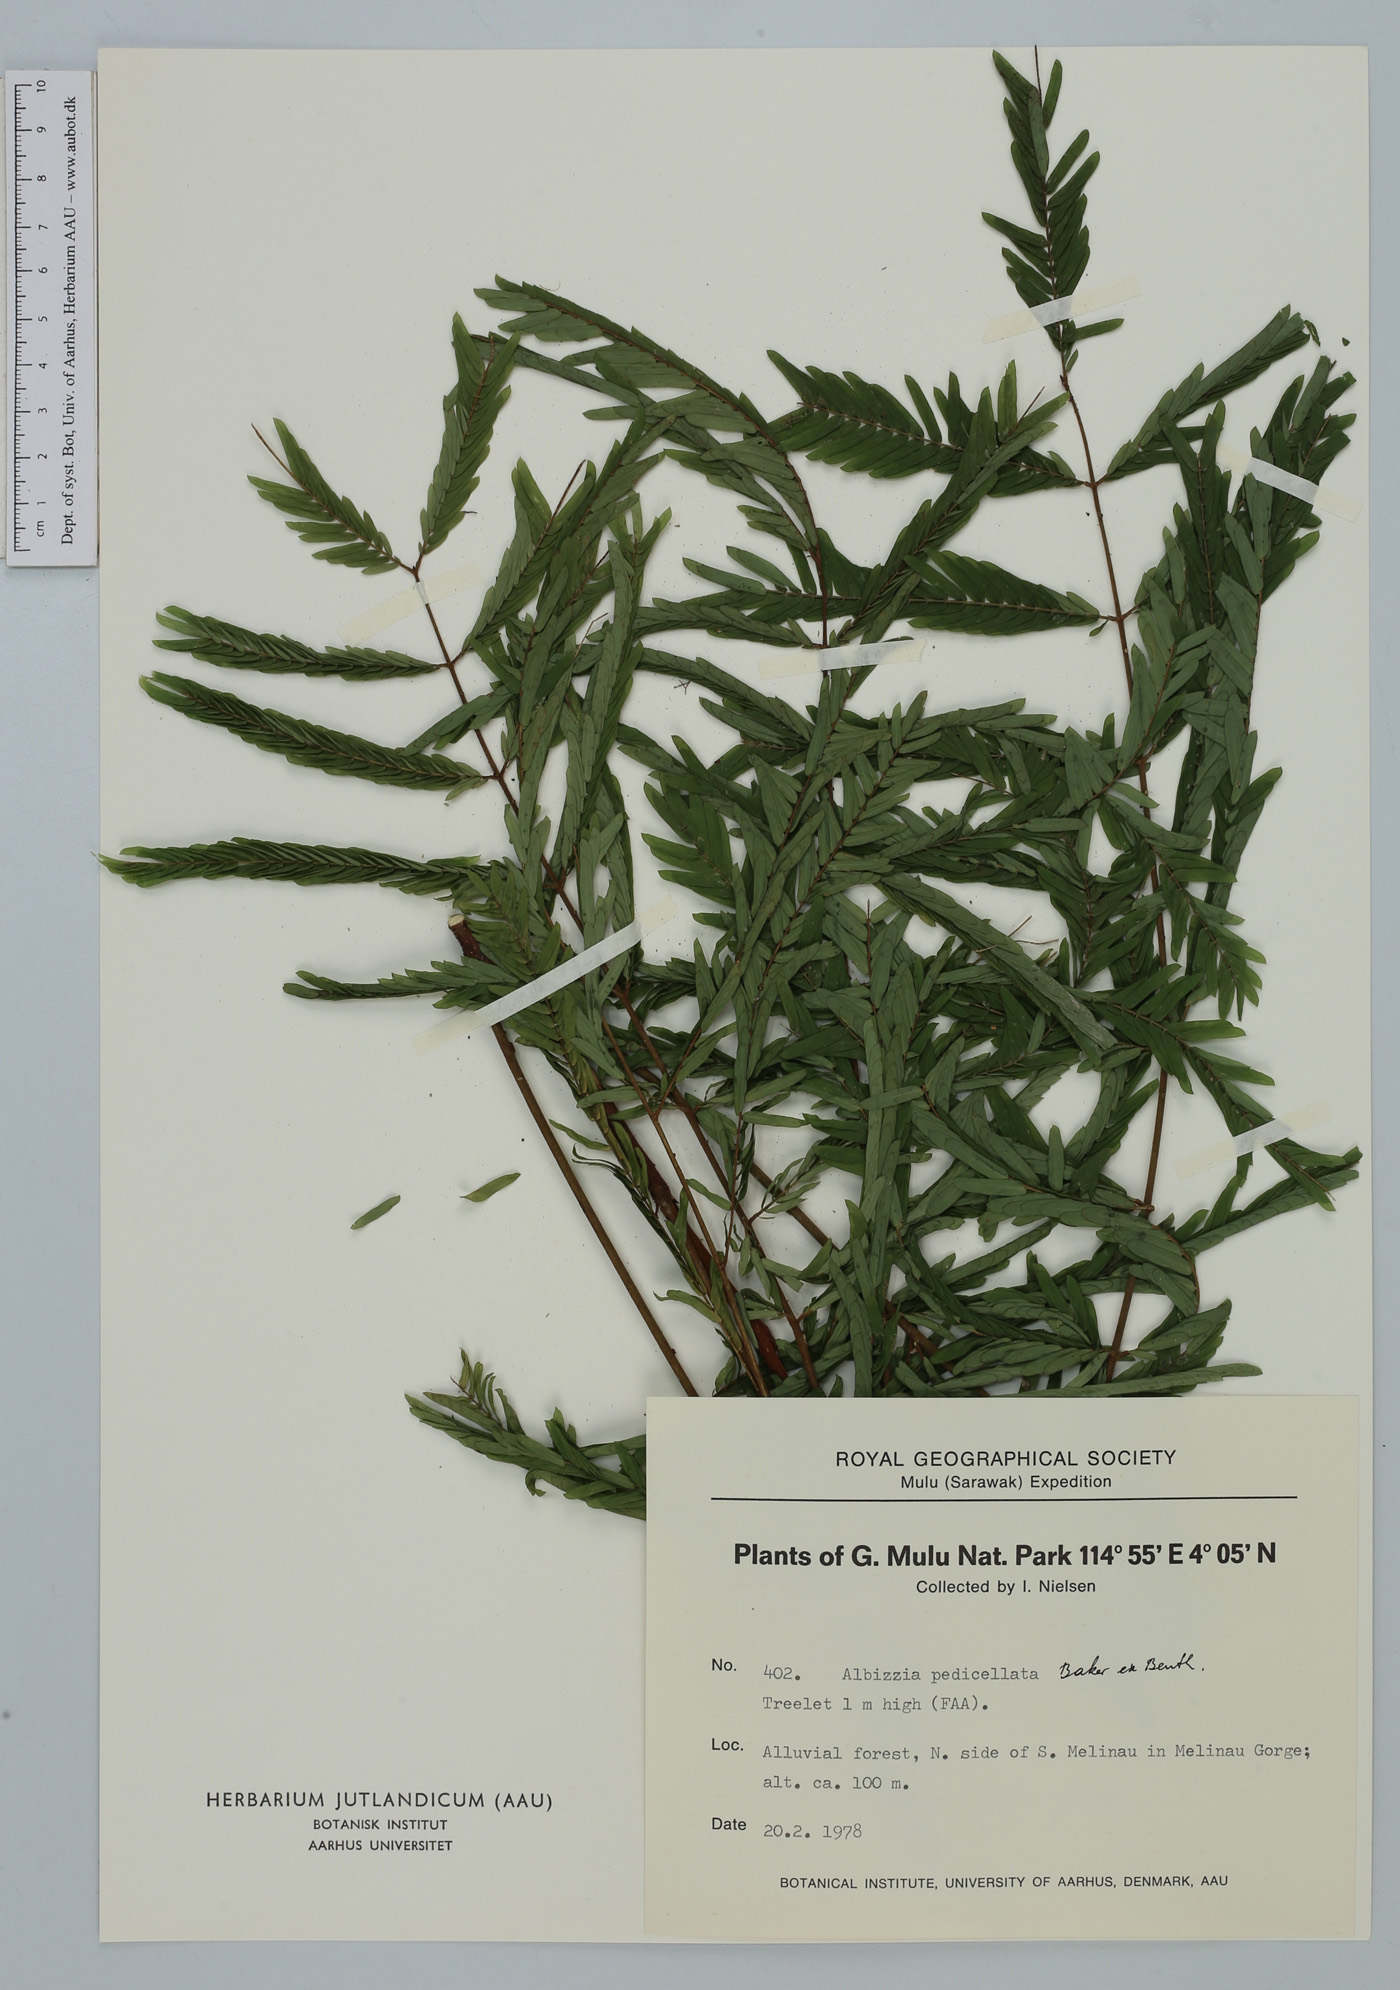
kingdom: Plantae
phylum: Tracheophyta
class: Magnoliopsida
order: Fabales
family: Fabaceae
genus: Albizia
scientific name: Albizia pedicellata
